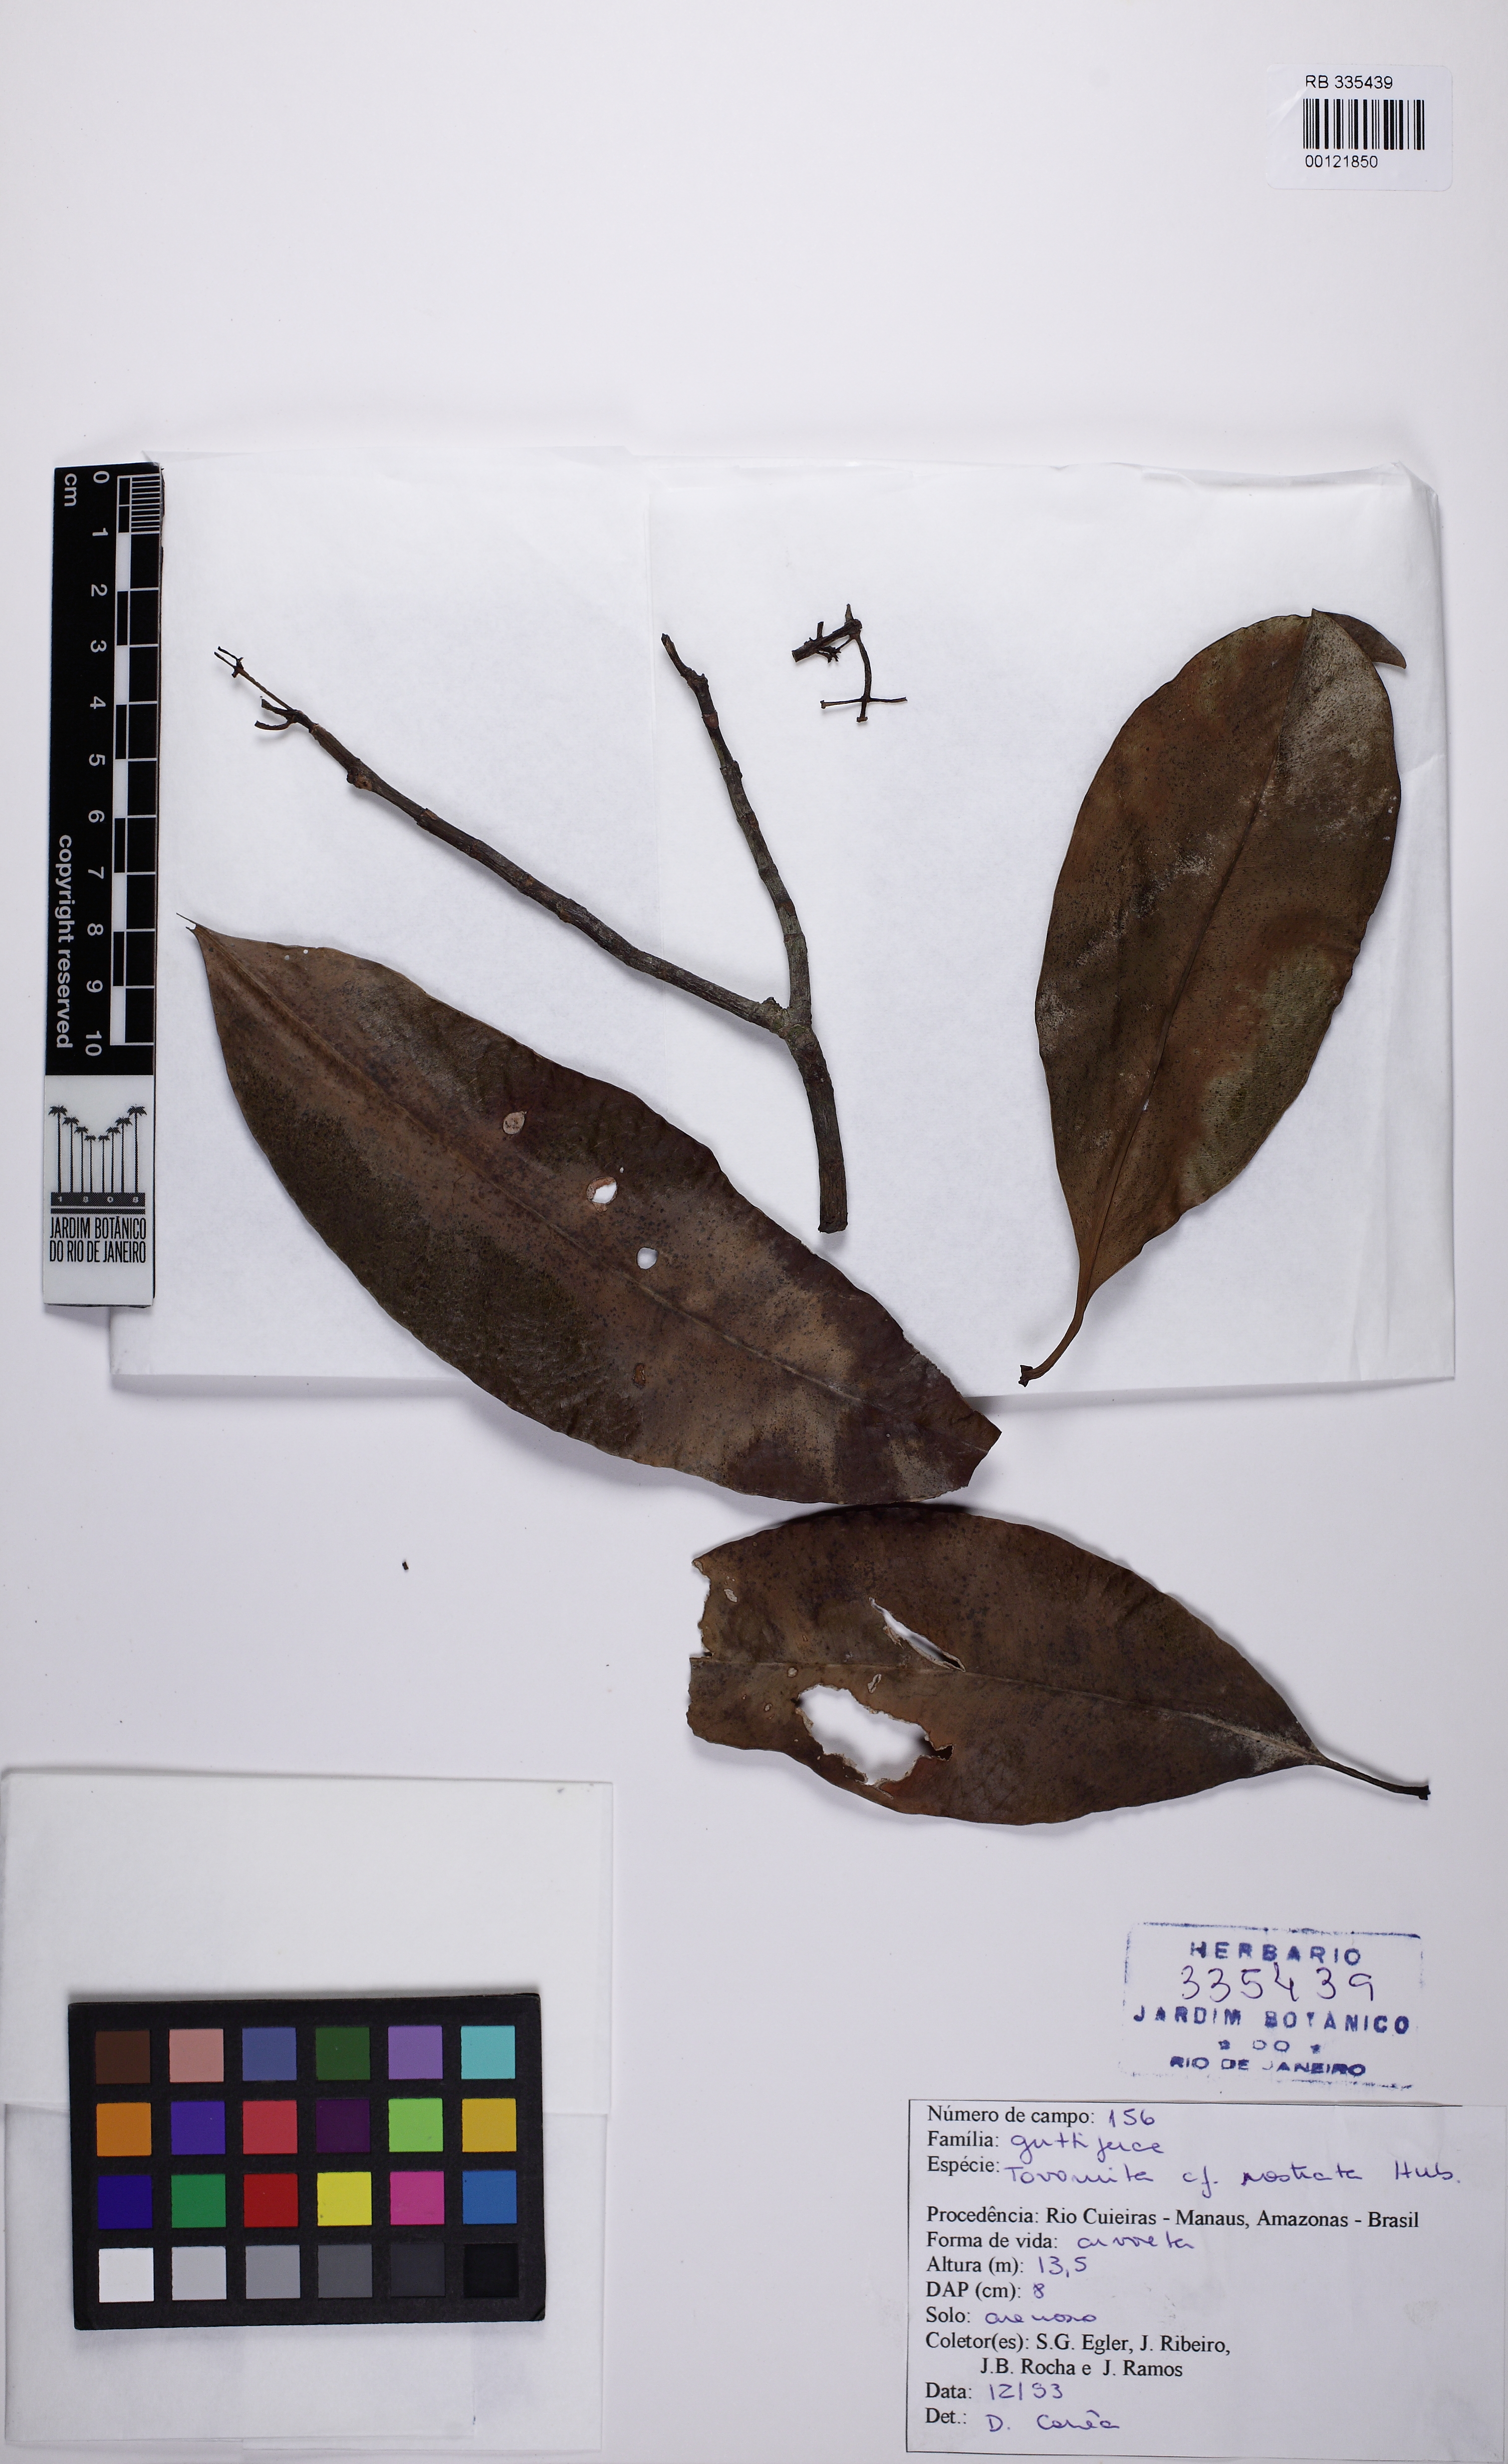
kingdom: Plantae
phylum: Tracheophyta
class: Magnoliopsida
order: Malpighiales
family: Clusiaceae
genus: Tovomita
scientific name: Tovomita rostrata
